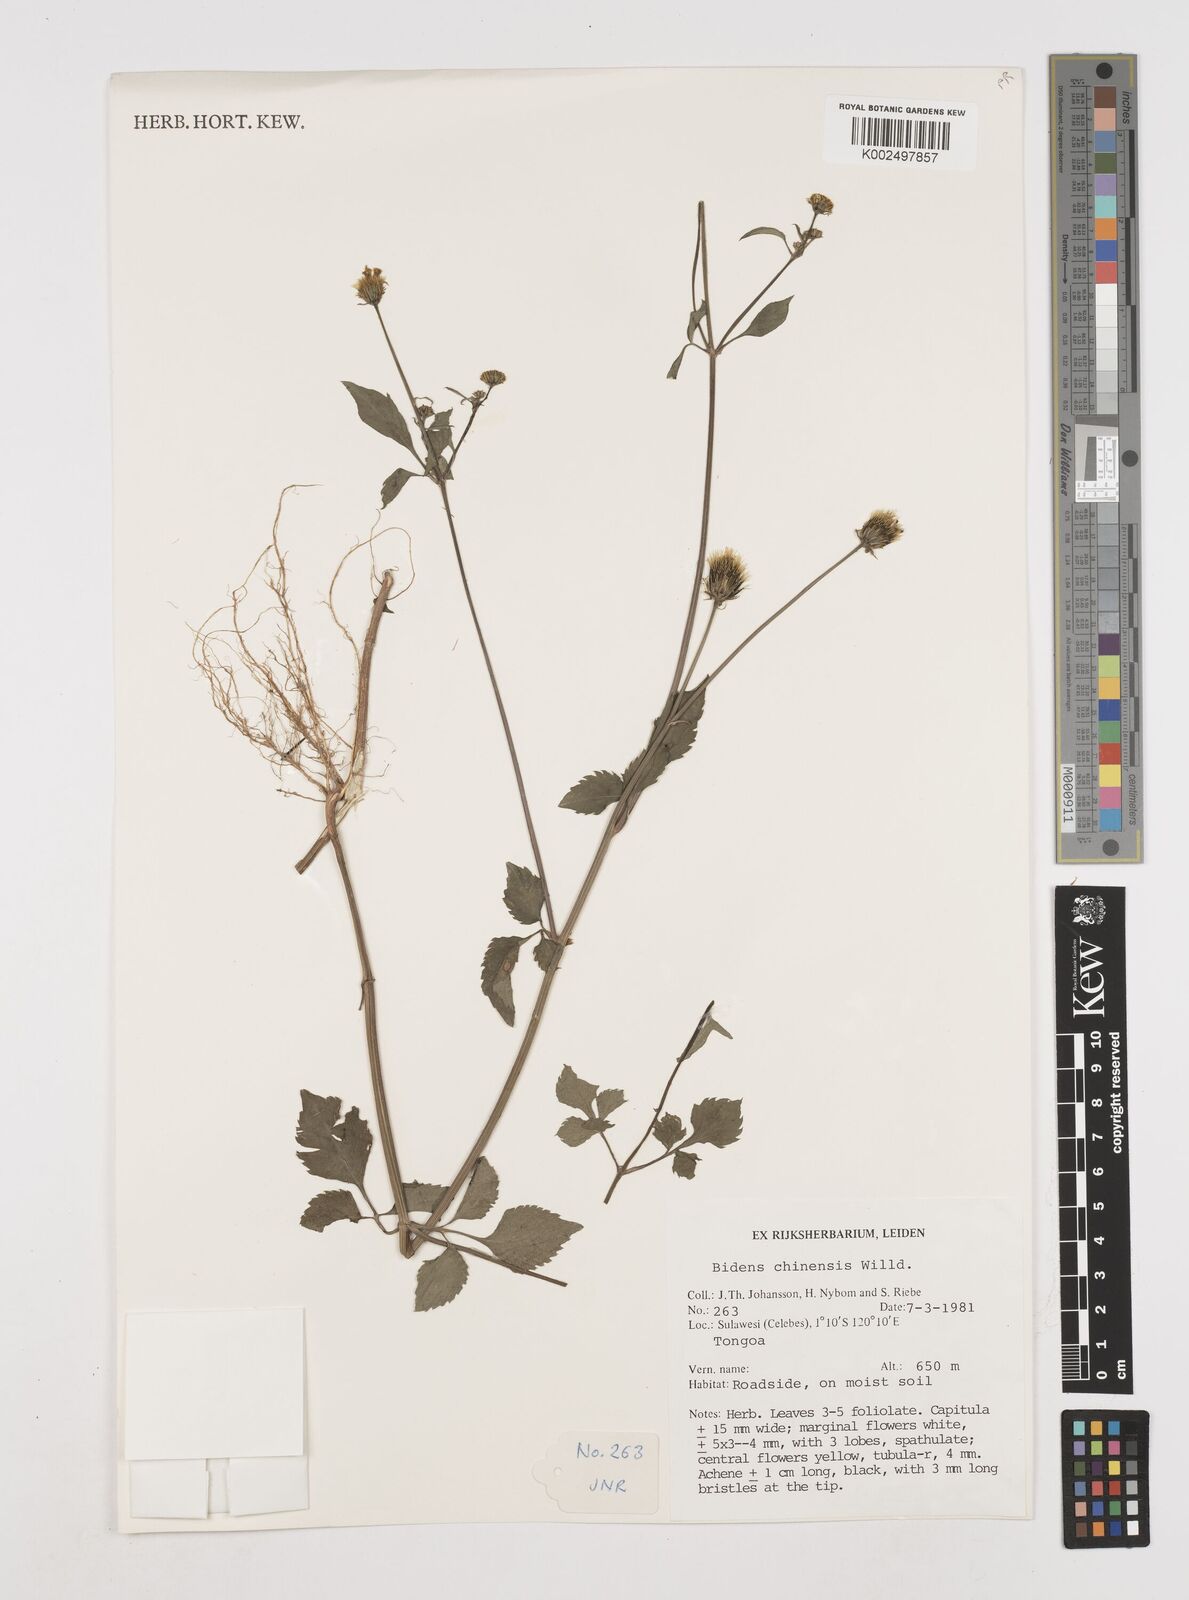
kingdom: Plantae
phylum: Tracheophyta
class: Magnoliopsida
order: Asterales
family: Asteraceae
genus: Bidens
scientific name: Bidens biternata
